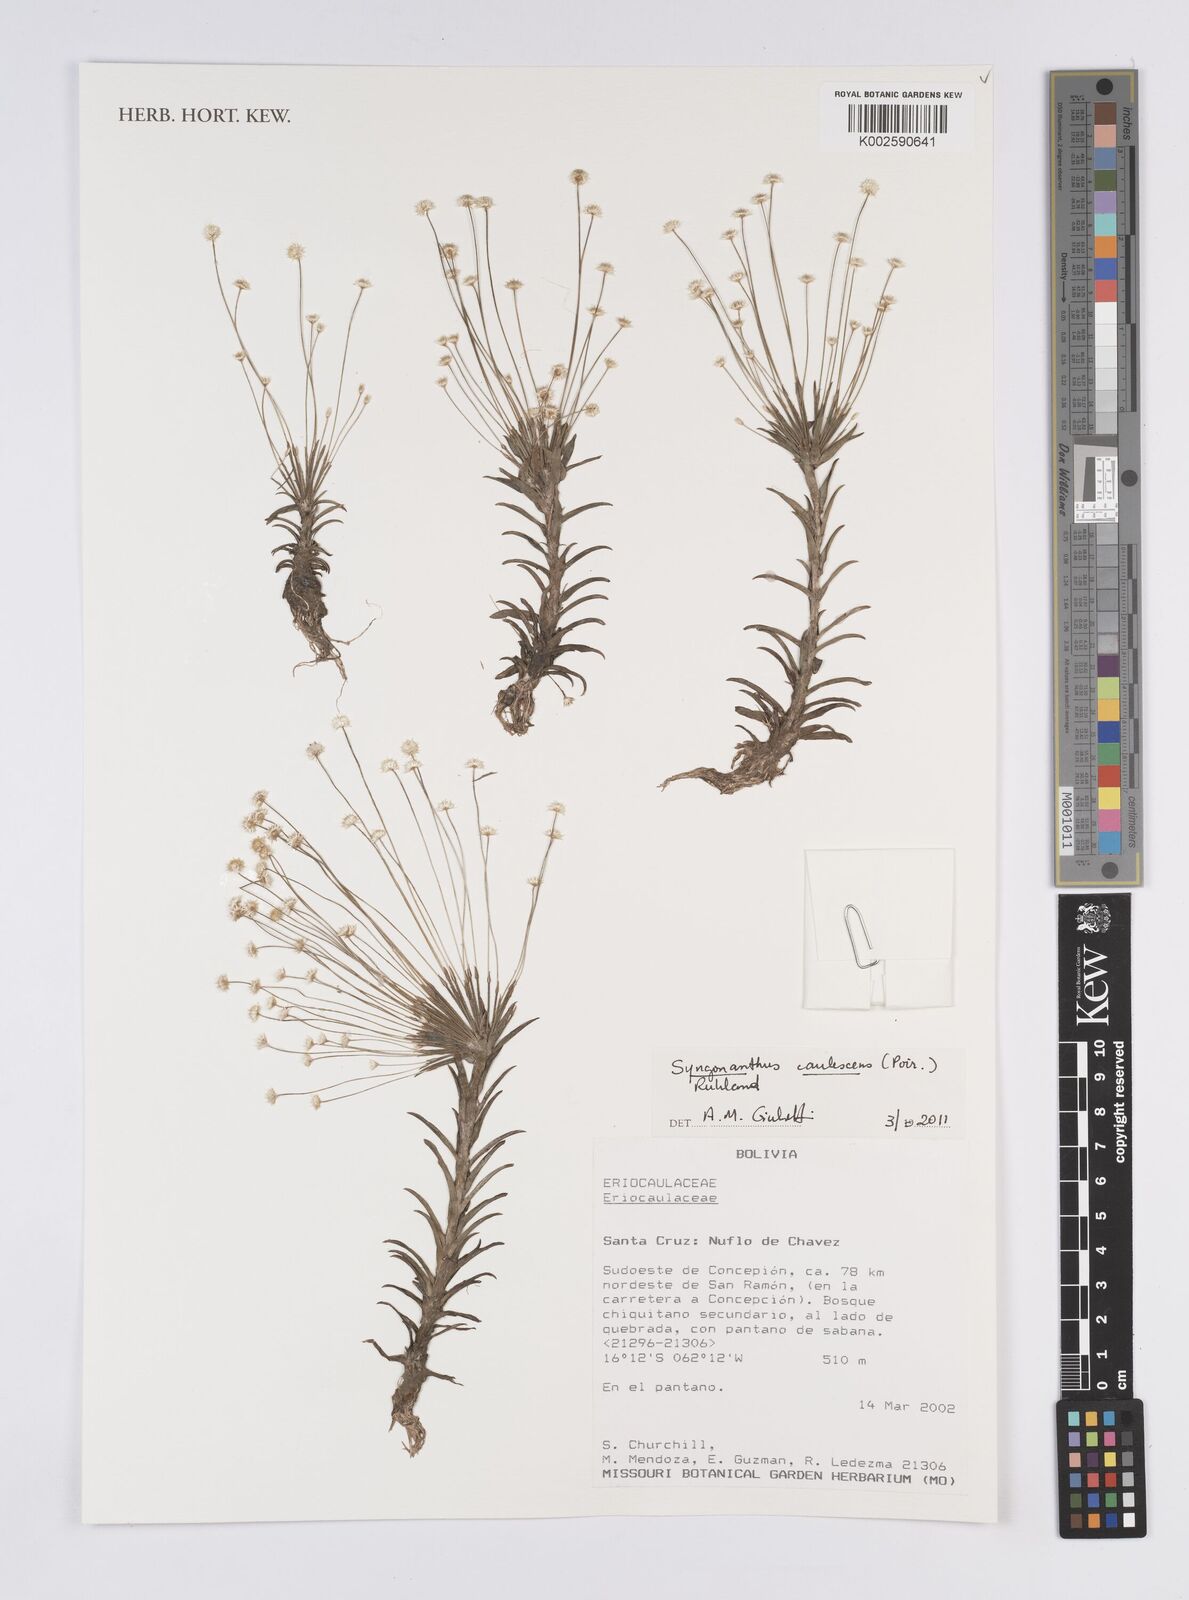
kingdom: Plantae
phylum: Tracheophyta
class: Liliopsida
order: Poales
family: Eriocaulaceae
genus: Syngonanthus
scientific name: Syngonanthus caulescens
